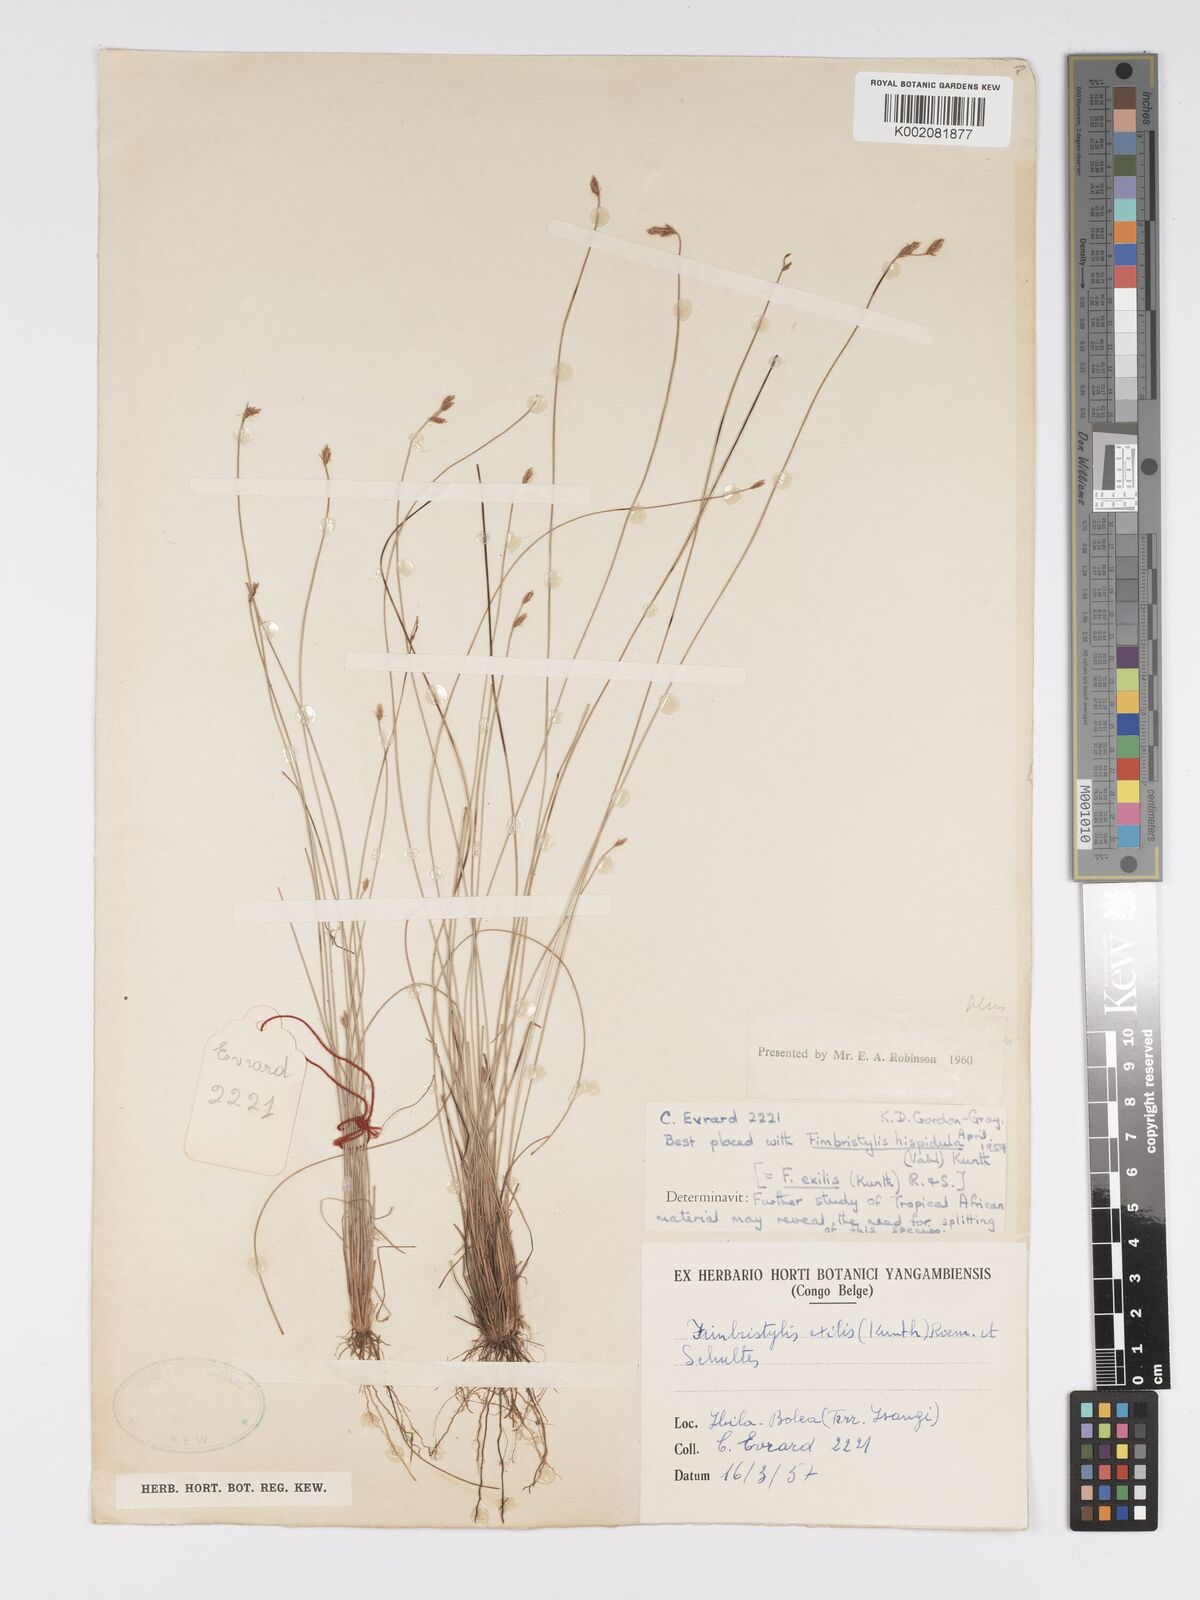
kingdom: Plantae
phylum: Tracheophyta
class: Liliopsida
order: Poales
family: Cyperaceae
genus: Bulbostylis
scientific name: Bulbostylis hispidula
